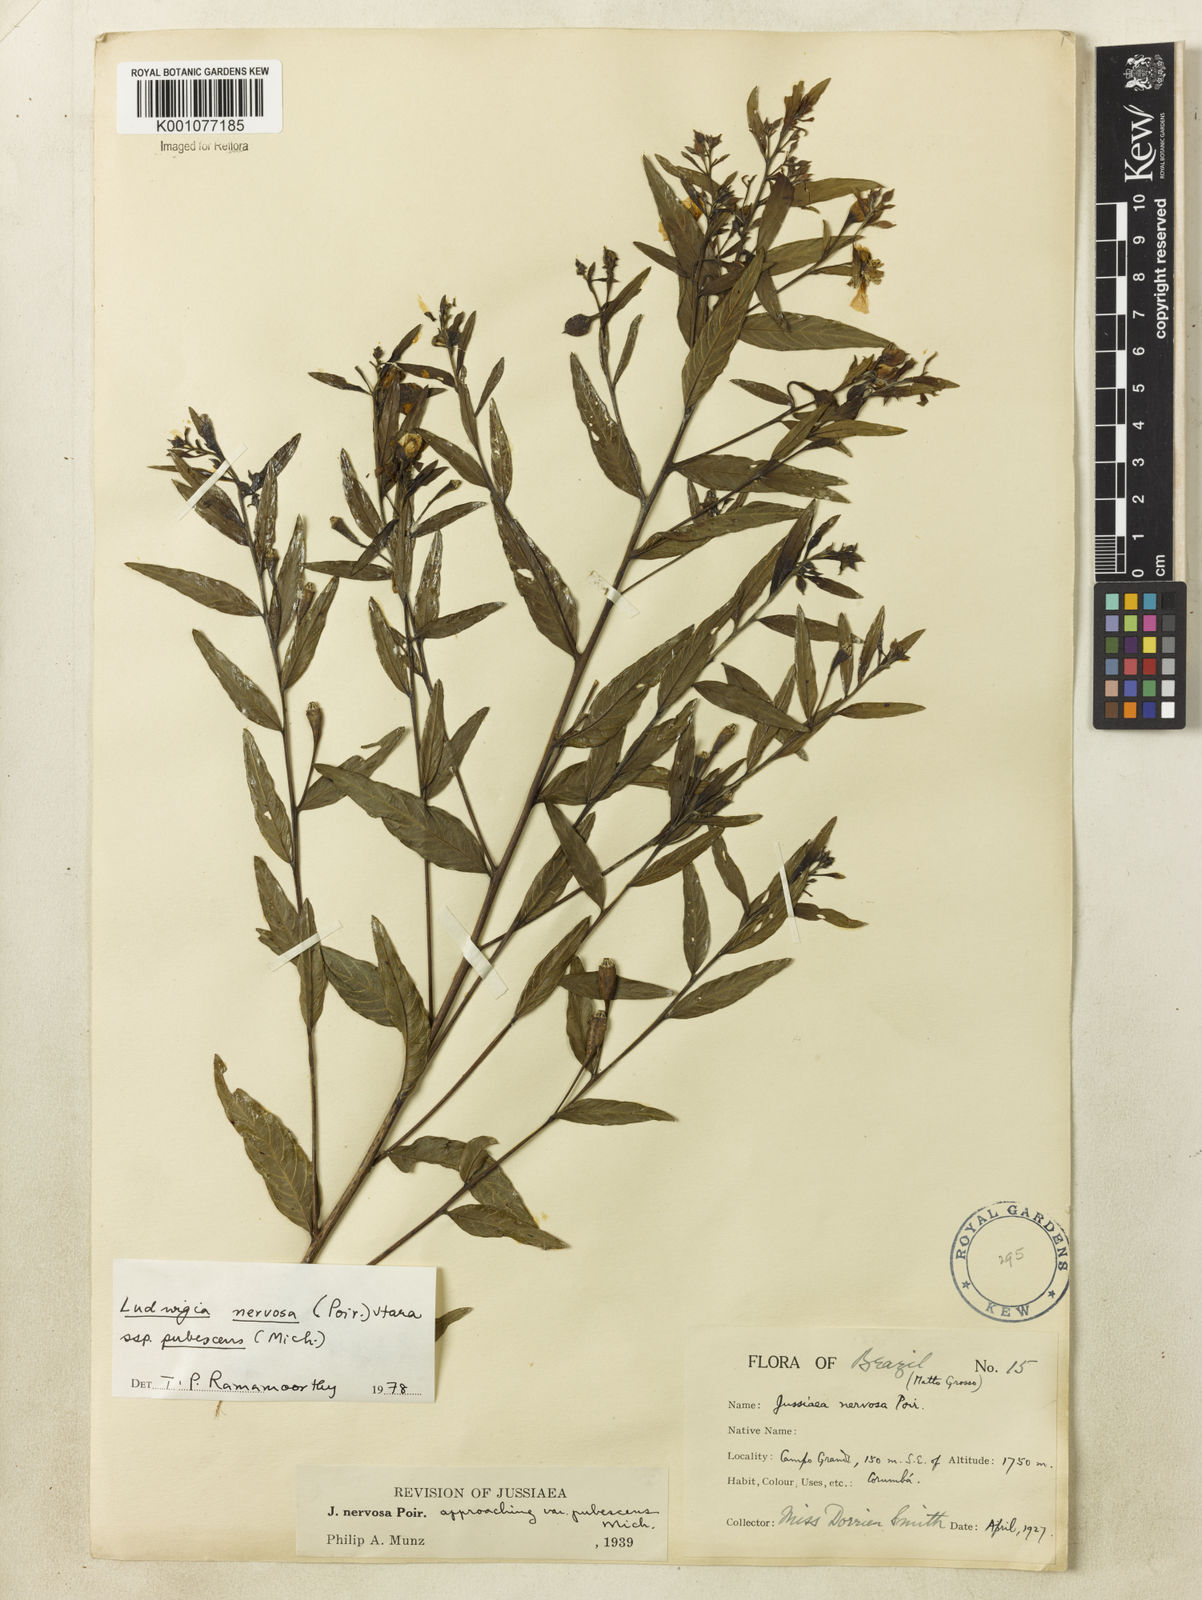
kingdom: Plantae
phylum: Tracheophyta
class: Magnoliopsida
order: Myrtales
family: Onagraceae
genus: Ludwigia
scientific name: Ludwigia nervosa
